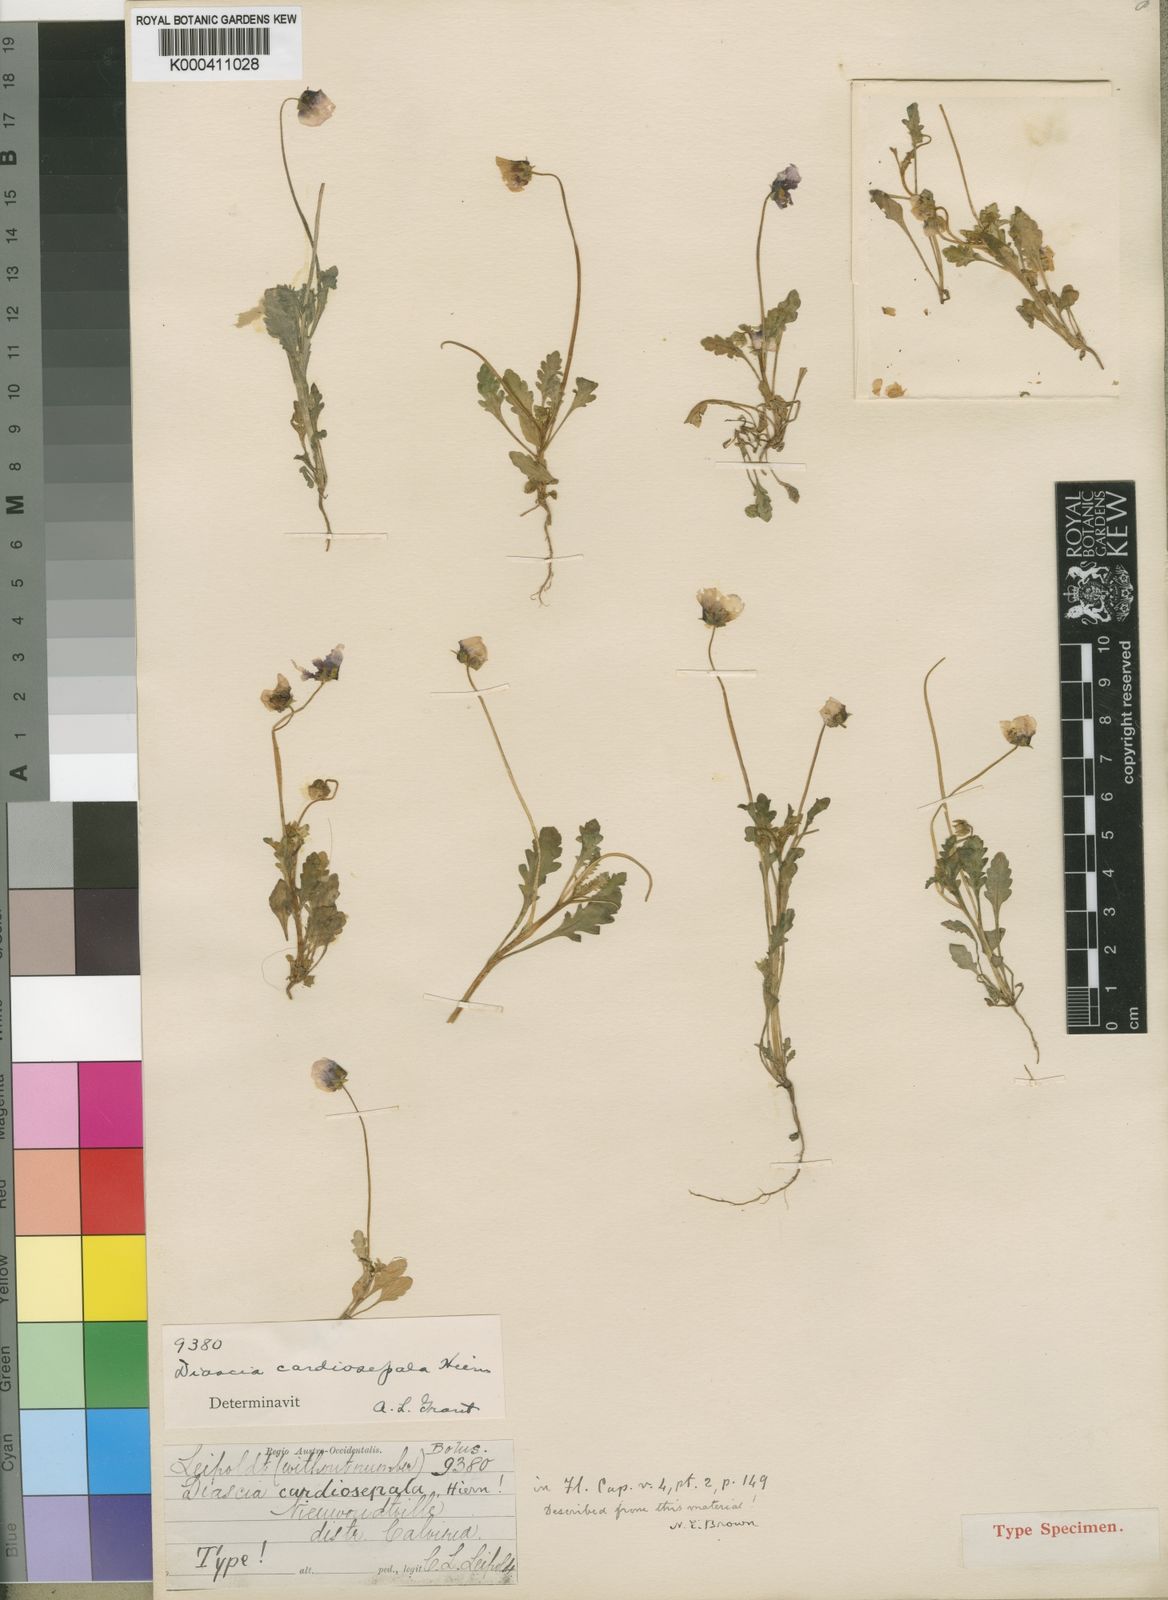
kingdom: Plantae
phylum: Tracheophyta
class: Magnoliopsida
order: Lamiales
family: Scrophulariaceae
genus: Diascia
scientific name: Diascia cardiosepala
